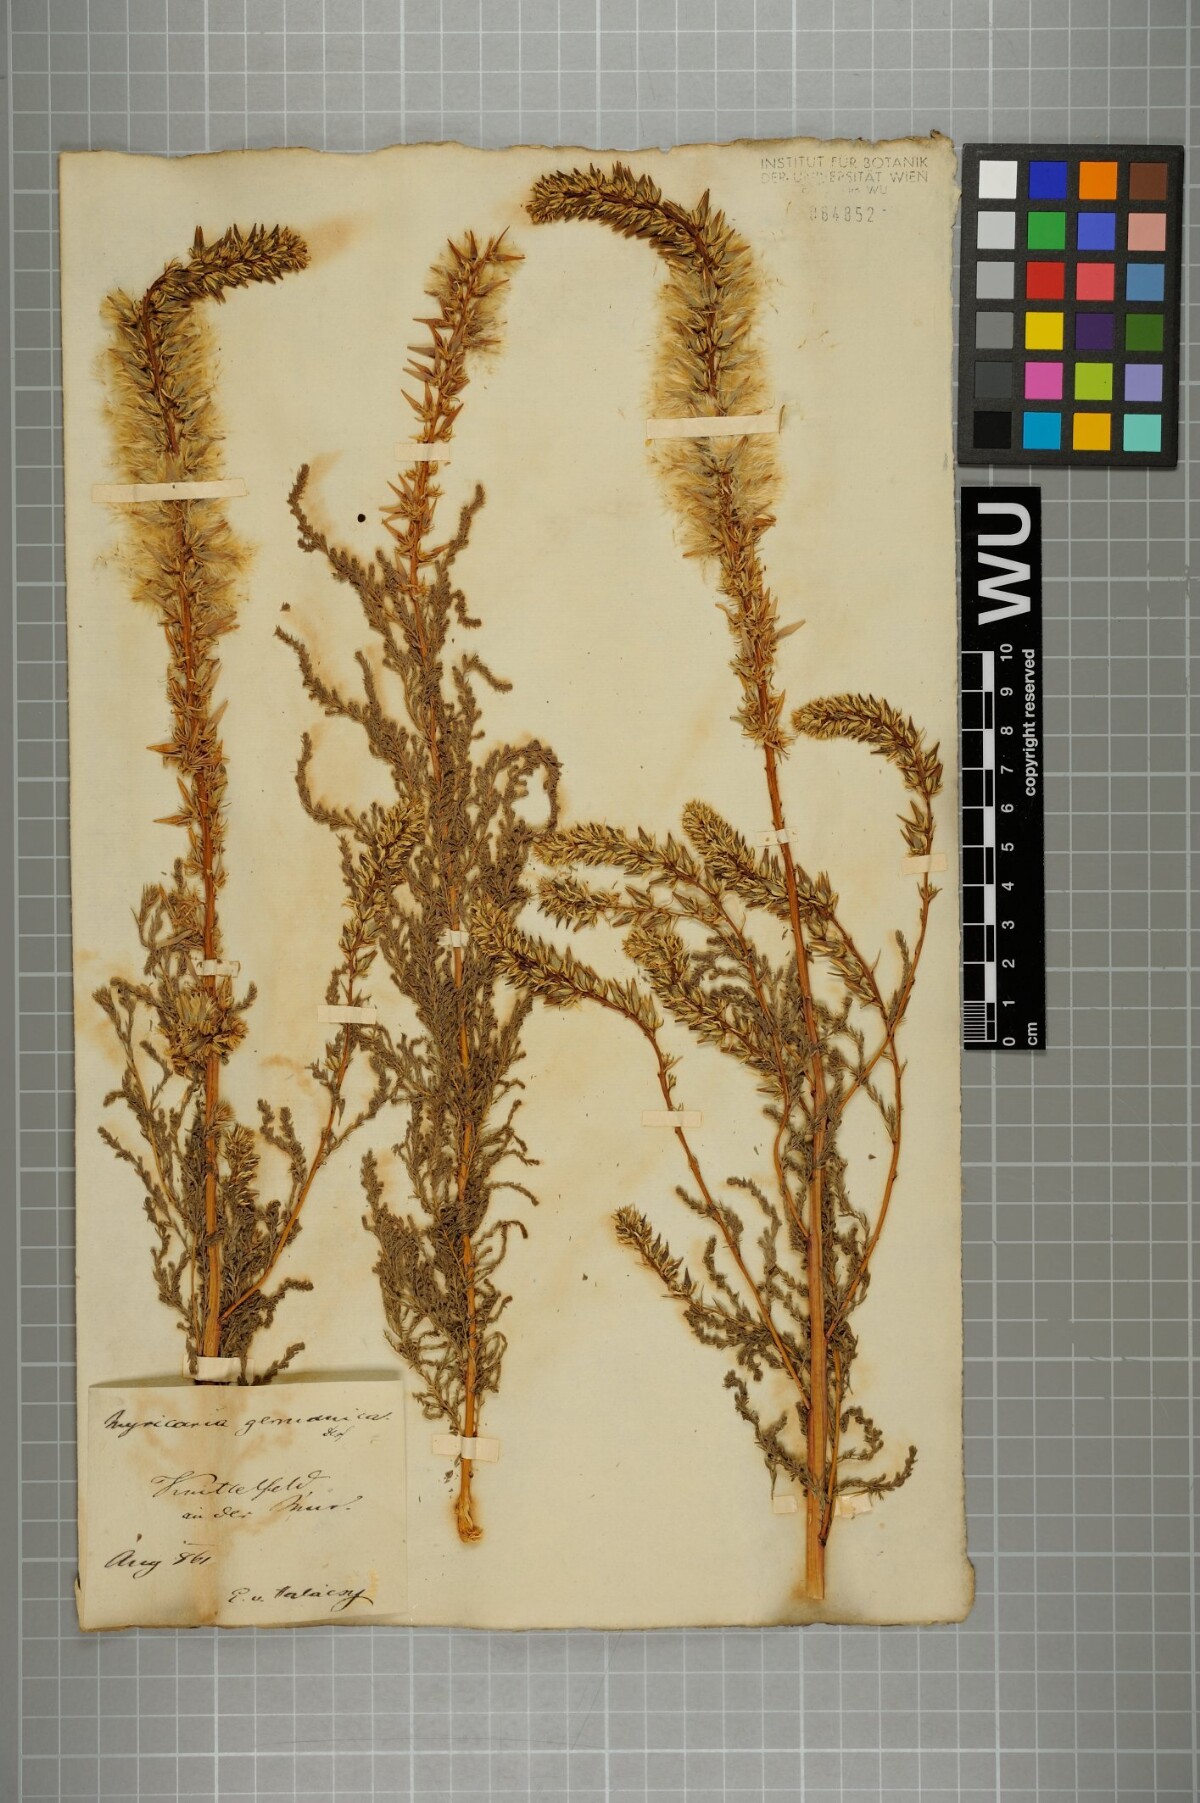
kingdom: Plantae
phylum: Tracheophyta
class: Magnoliopsida
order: Caryophyllales
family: Tamaricaceae
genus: Myricaria
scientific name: Myricaria germanica
